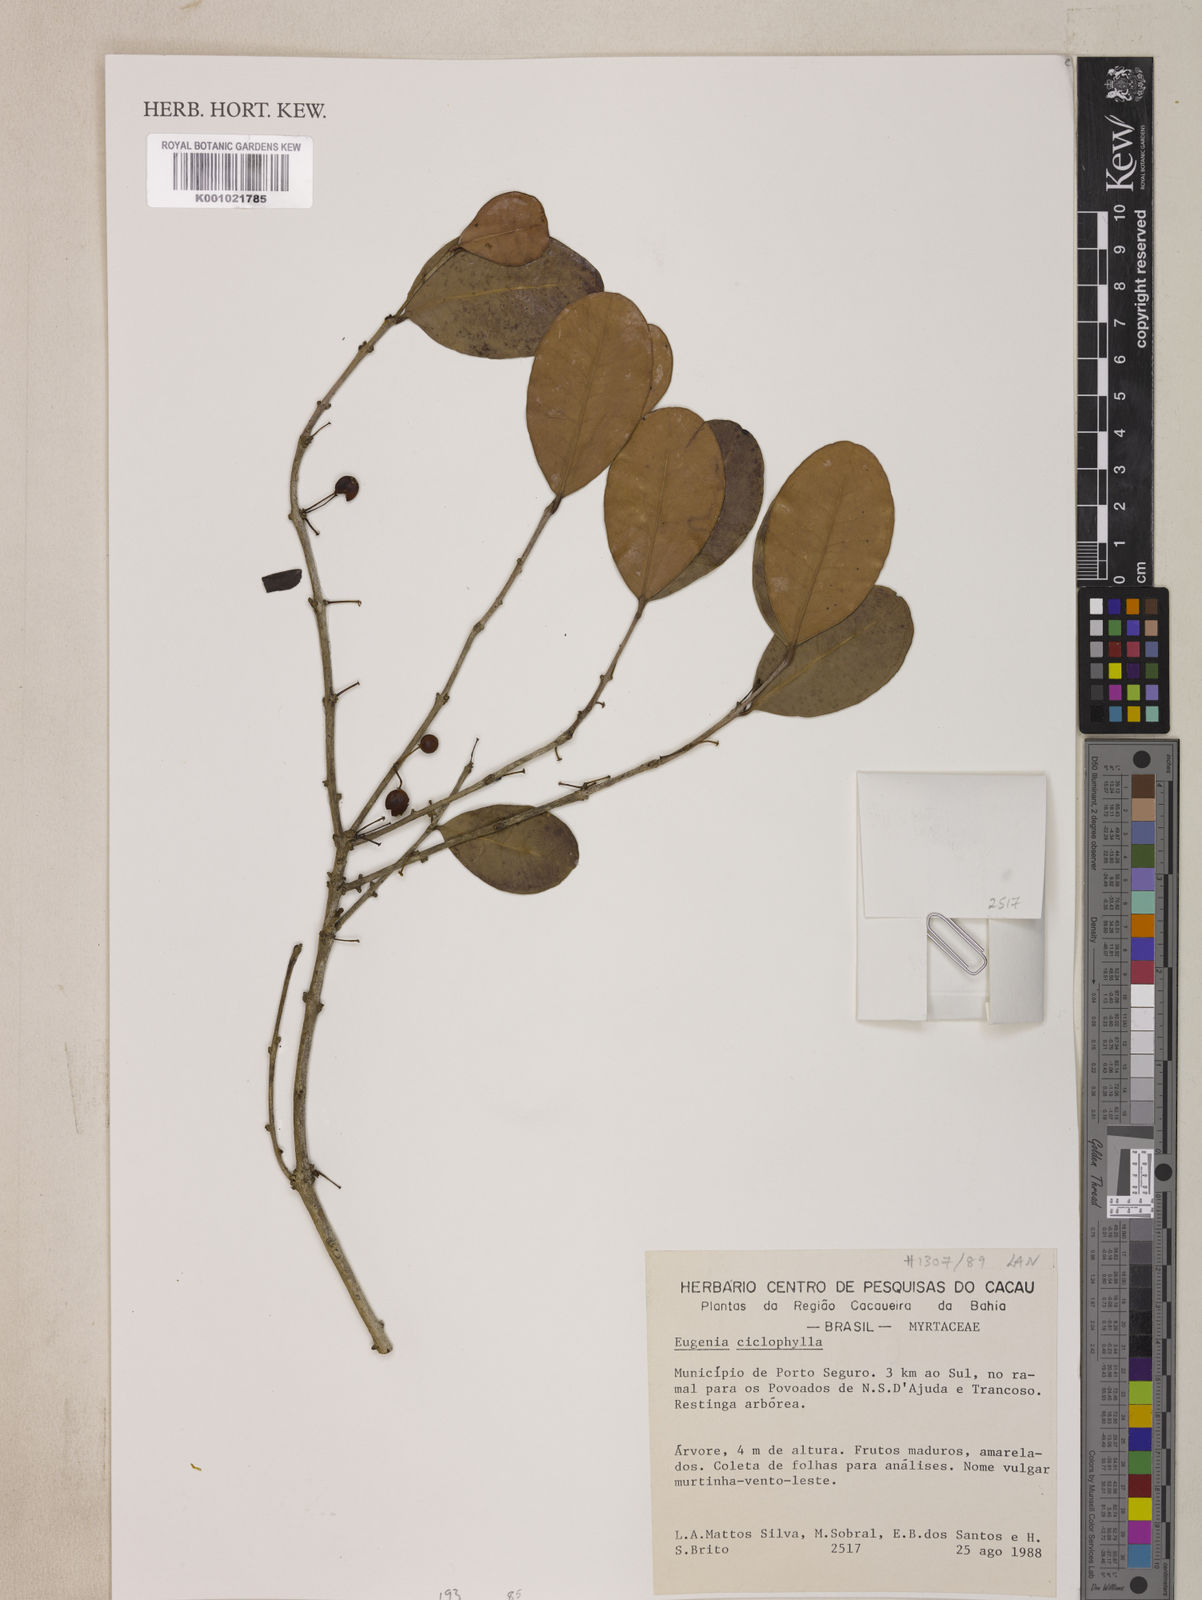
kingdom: Plantae
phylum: Tracheophyta
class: Magnoliopsida
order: Myrtales
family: Myrtaceae
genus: Eugenia
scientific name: Eugenia cyclophylla
